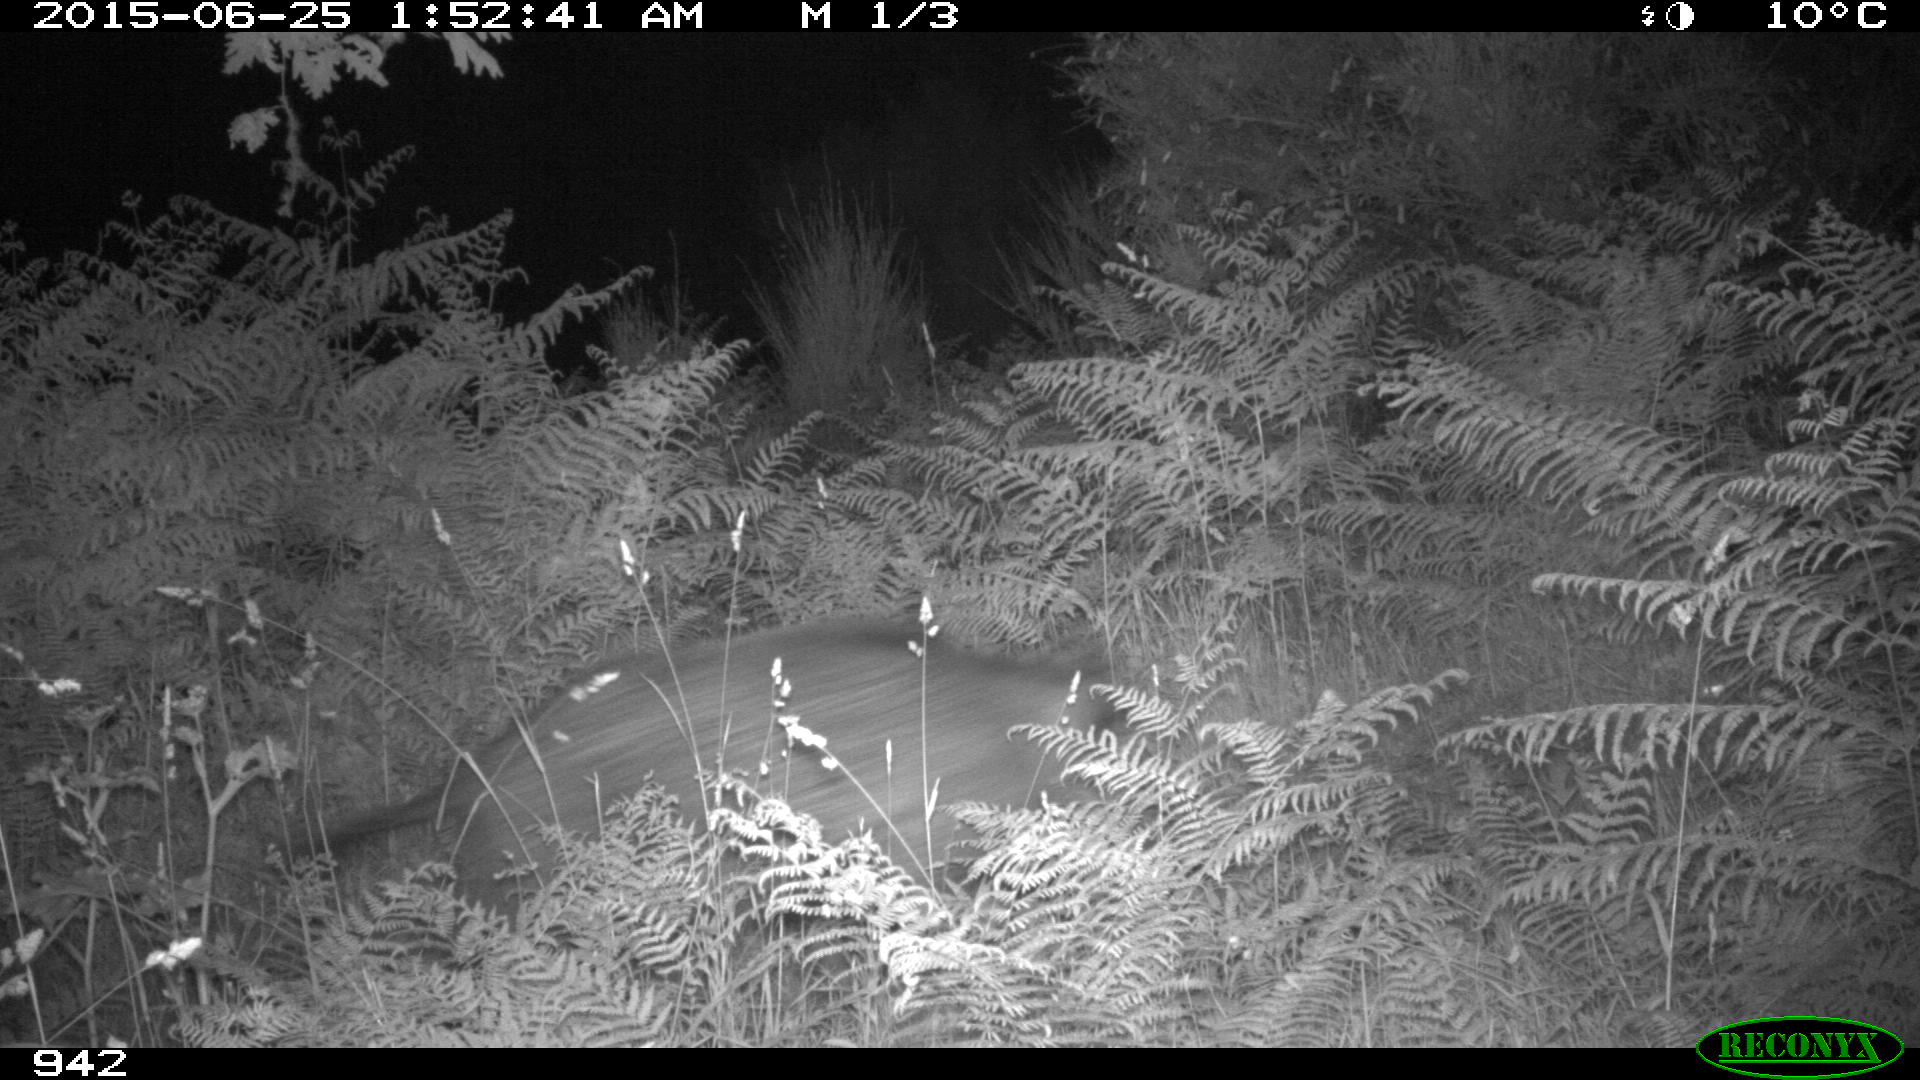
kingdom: Animalia
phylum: Chordata
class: Mammalia
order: Artiodactyla
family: Suidae
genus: Sus
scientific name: Sus scrofa
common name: Wild boar
